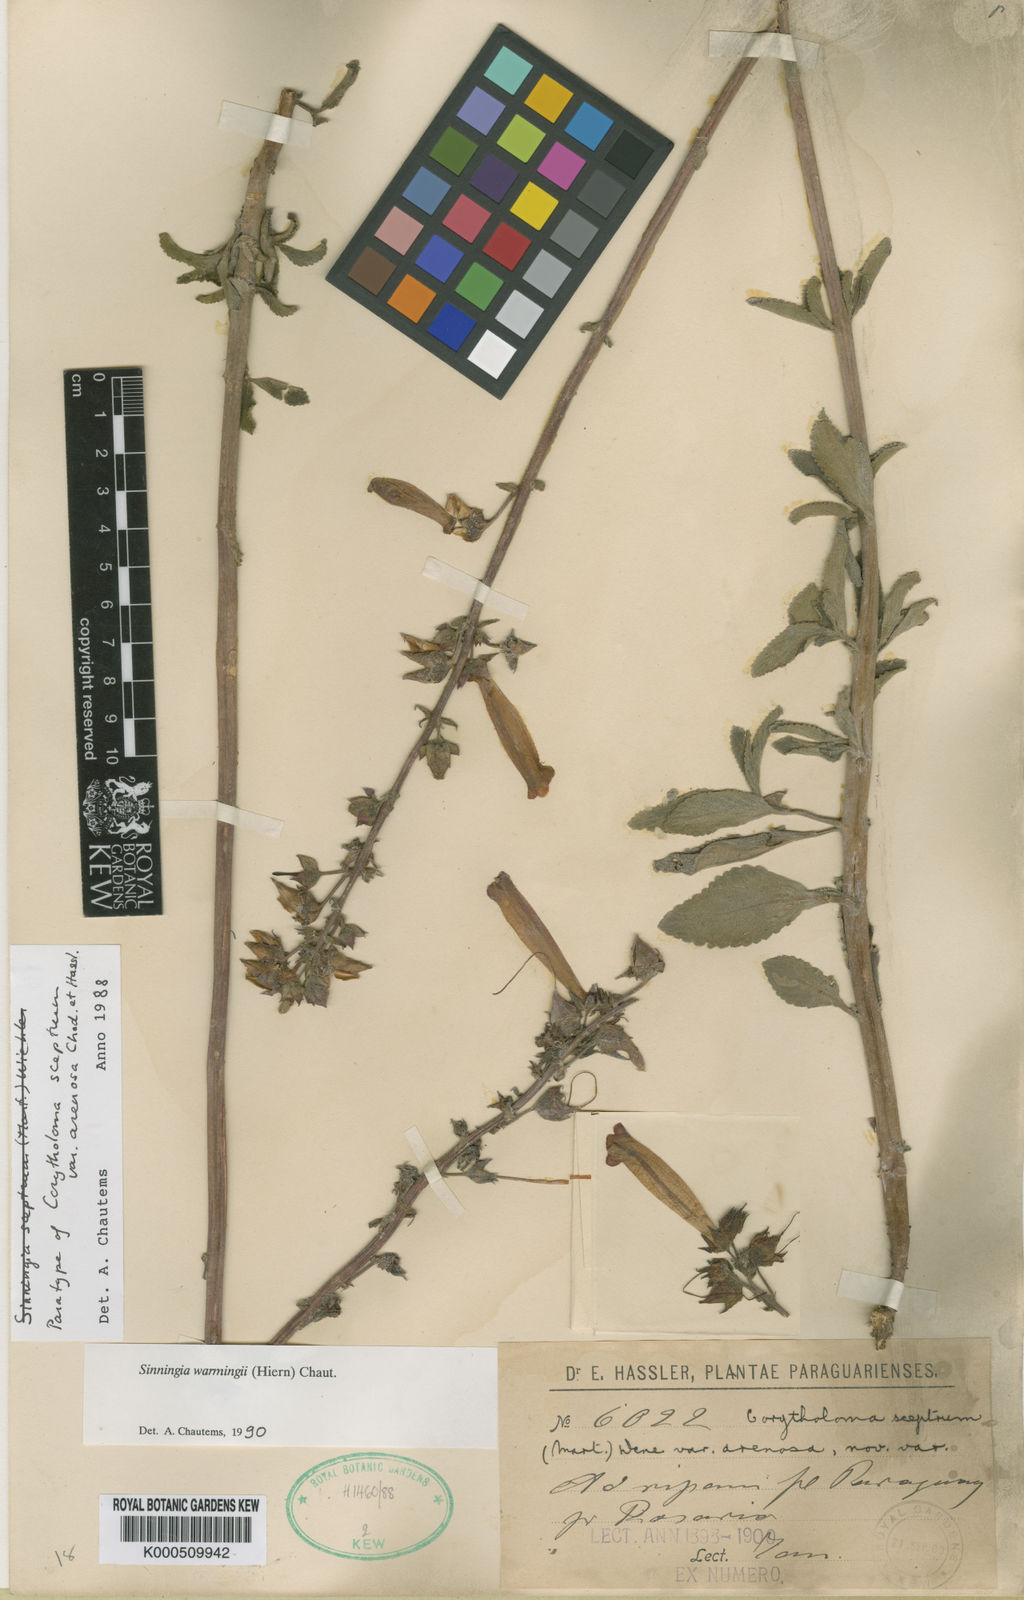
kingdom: Plantae
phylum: Tracheophyta
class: Magnoliopsida
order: Lamiales
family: Gesneriaceae
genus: Sinningia
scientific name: Sinningia warmingii
